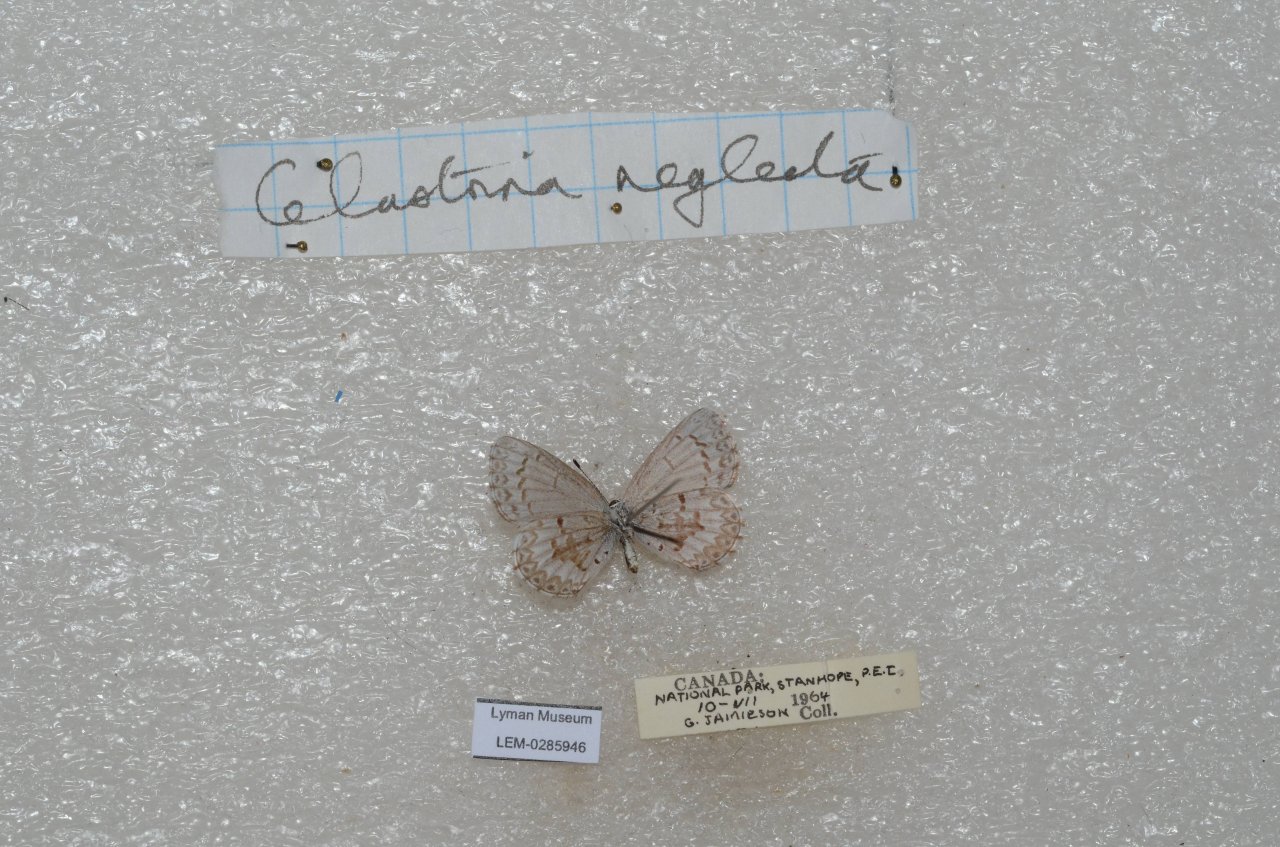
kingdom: Animalia
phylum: Arthropoda
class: Insecta
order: Lepidoptera
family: Lycaenidae
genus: Cyaniris
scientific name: Cyaniris neglecta
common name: Summer Azure
